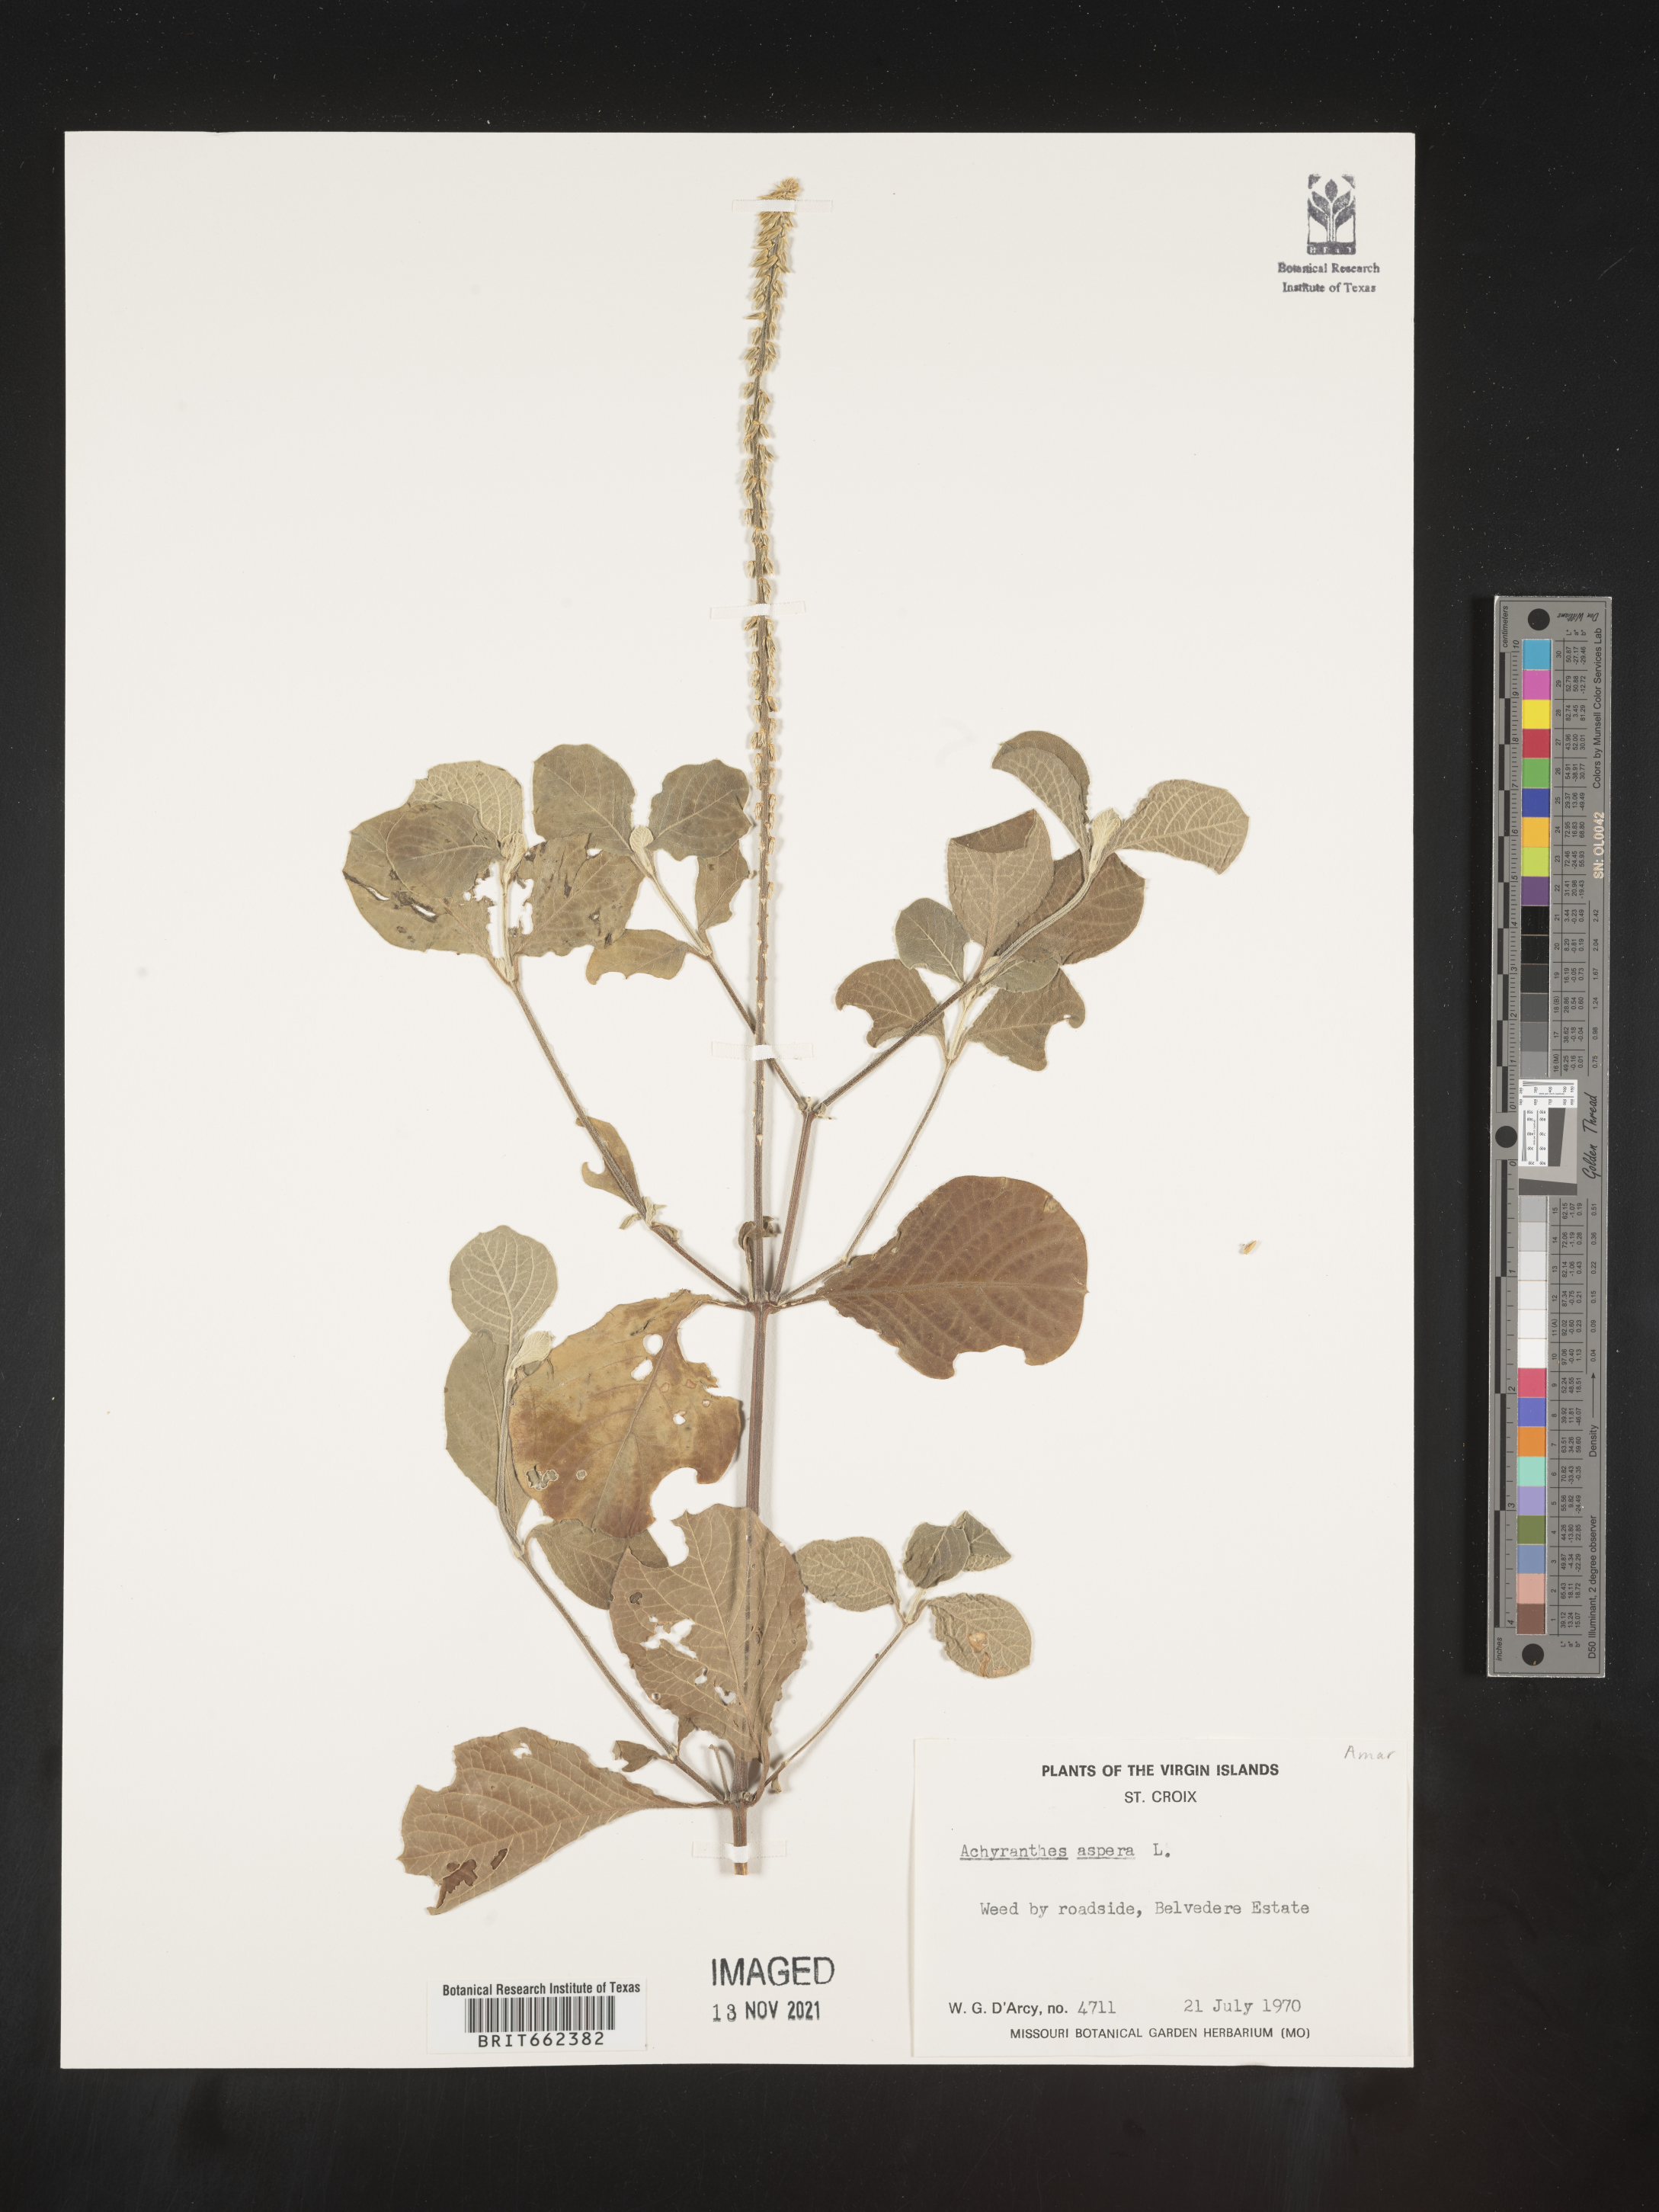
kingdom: Plantae
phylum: Tracheophyta
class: Magnoliopsida
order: Caryophyllales
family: Amaranthaceae
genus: Achyranthes
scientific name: Achyranthes
